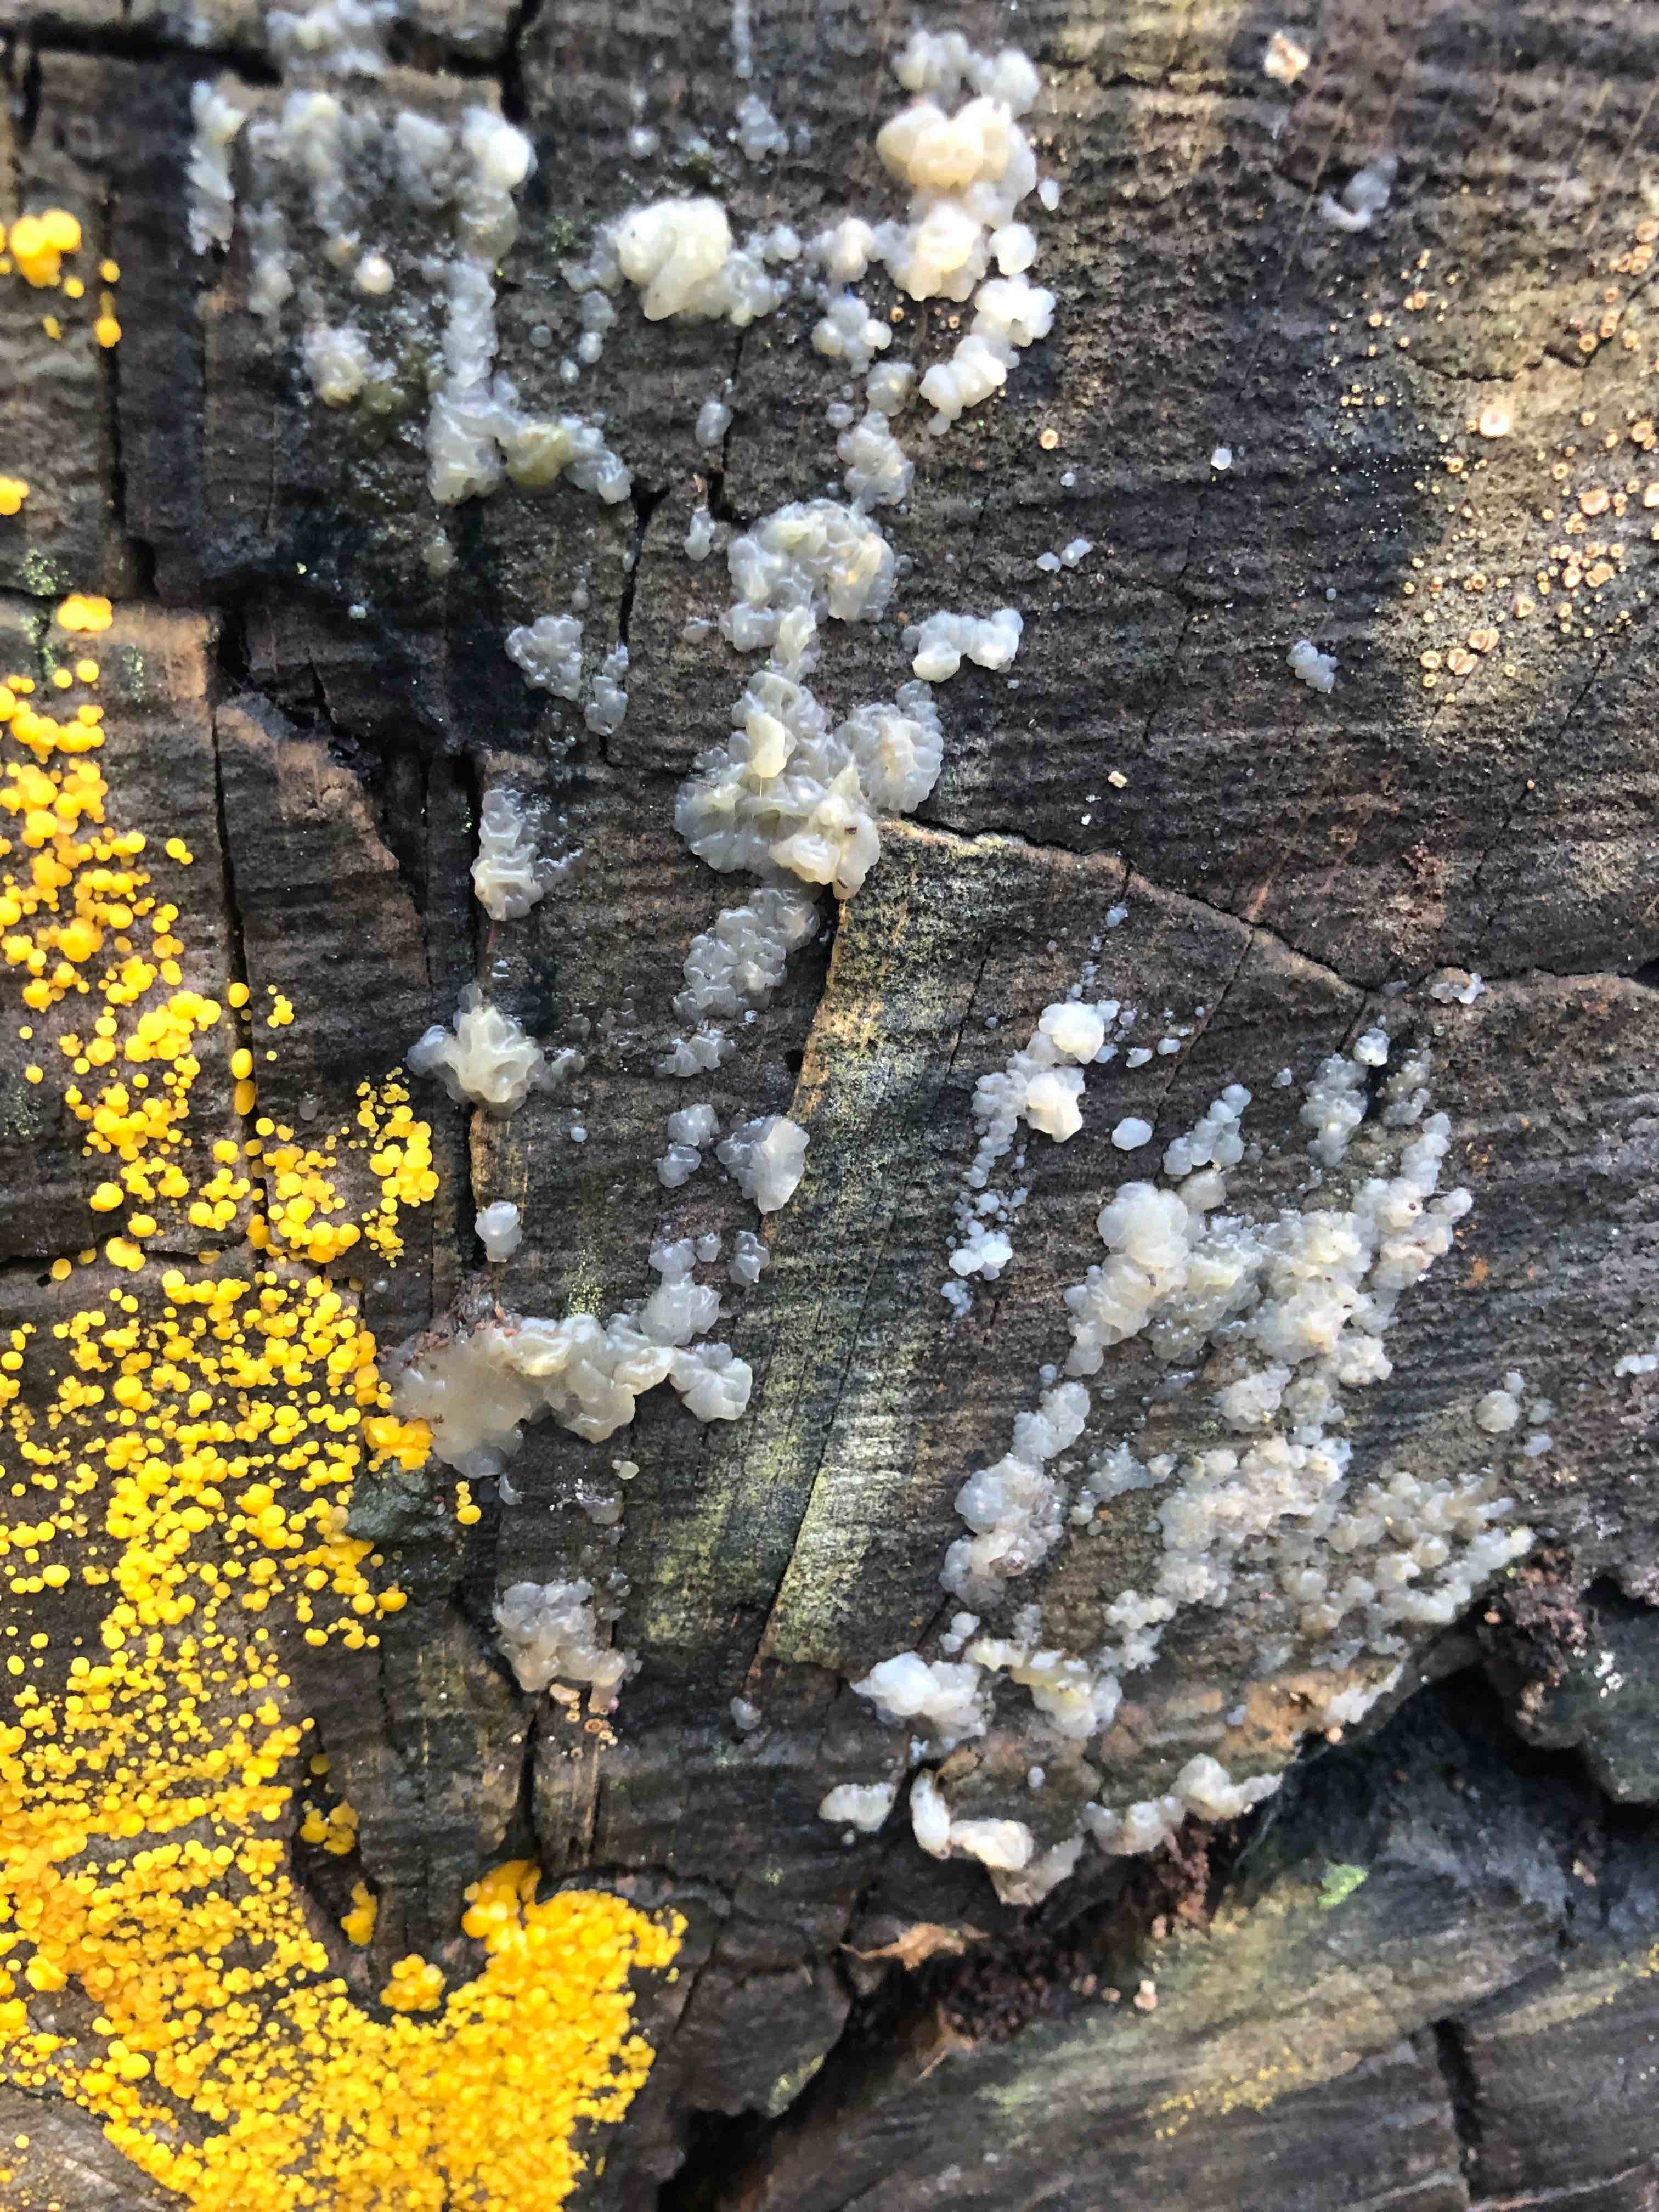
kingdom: Fungi
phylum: Ascomycota
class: Leotiomycetes
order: Helotiales
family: Pezizellaceae
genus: Calycina
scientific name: Calycina citrina
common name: almindelig gulskive
